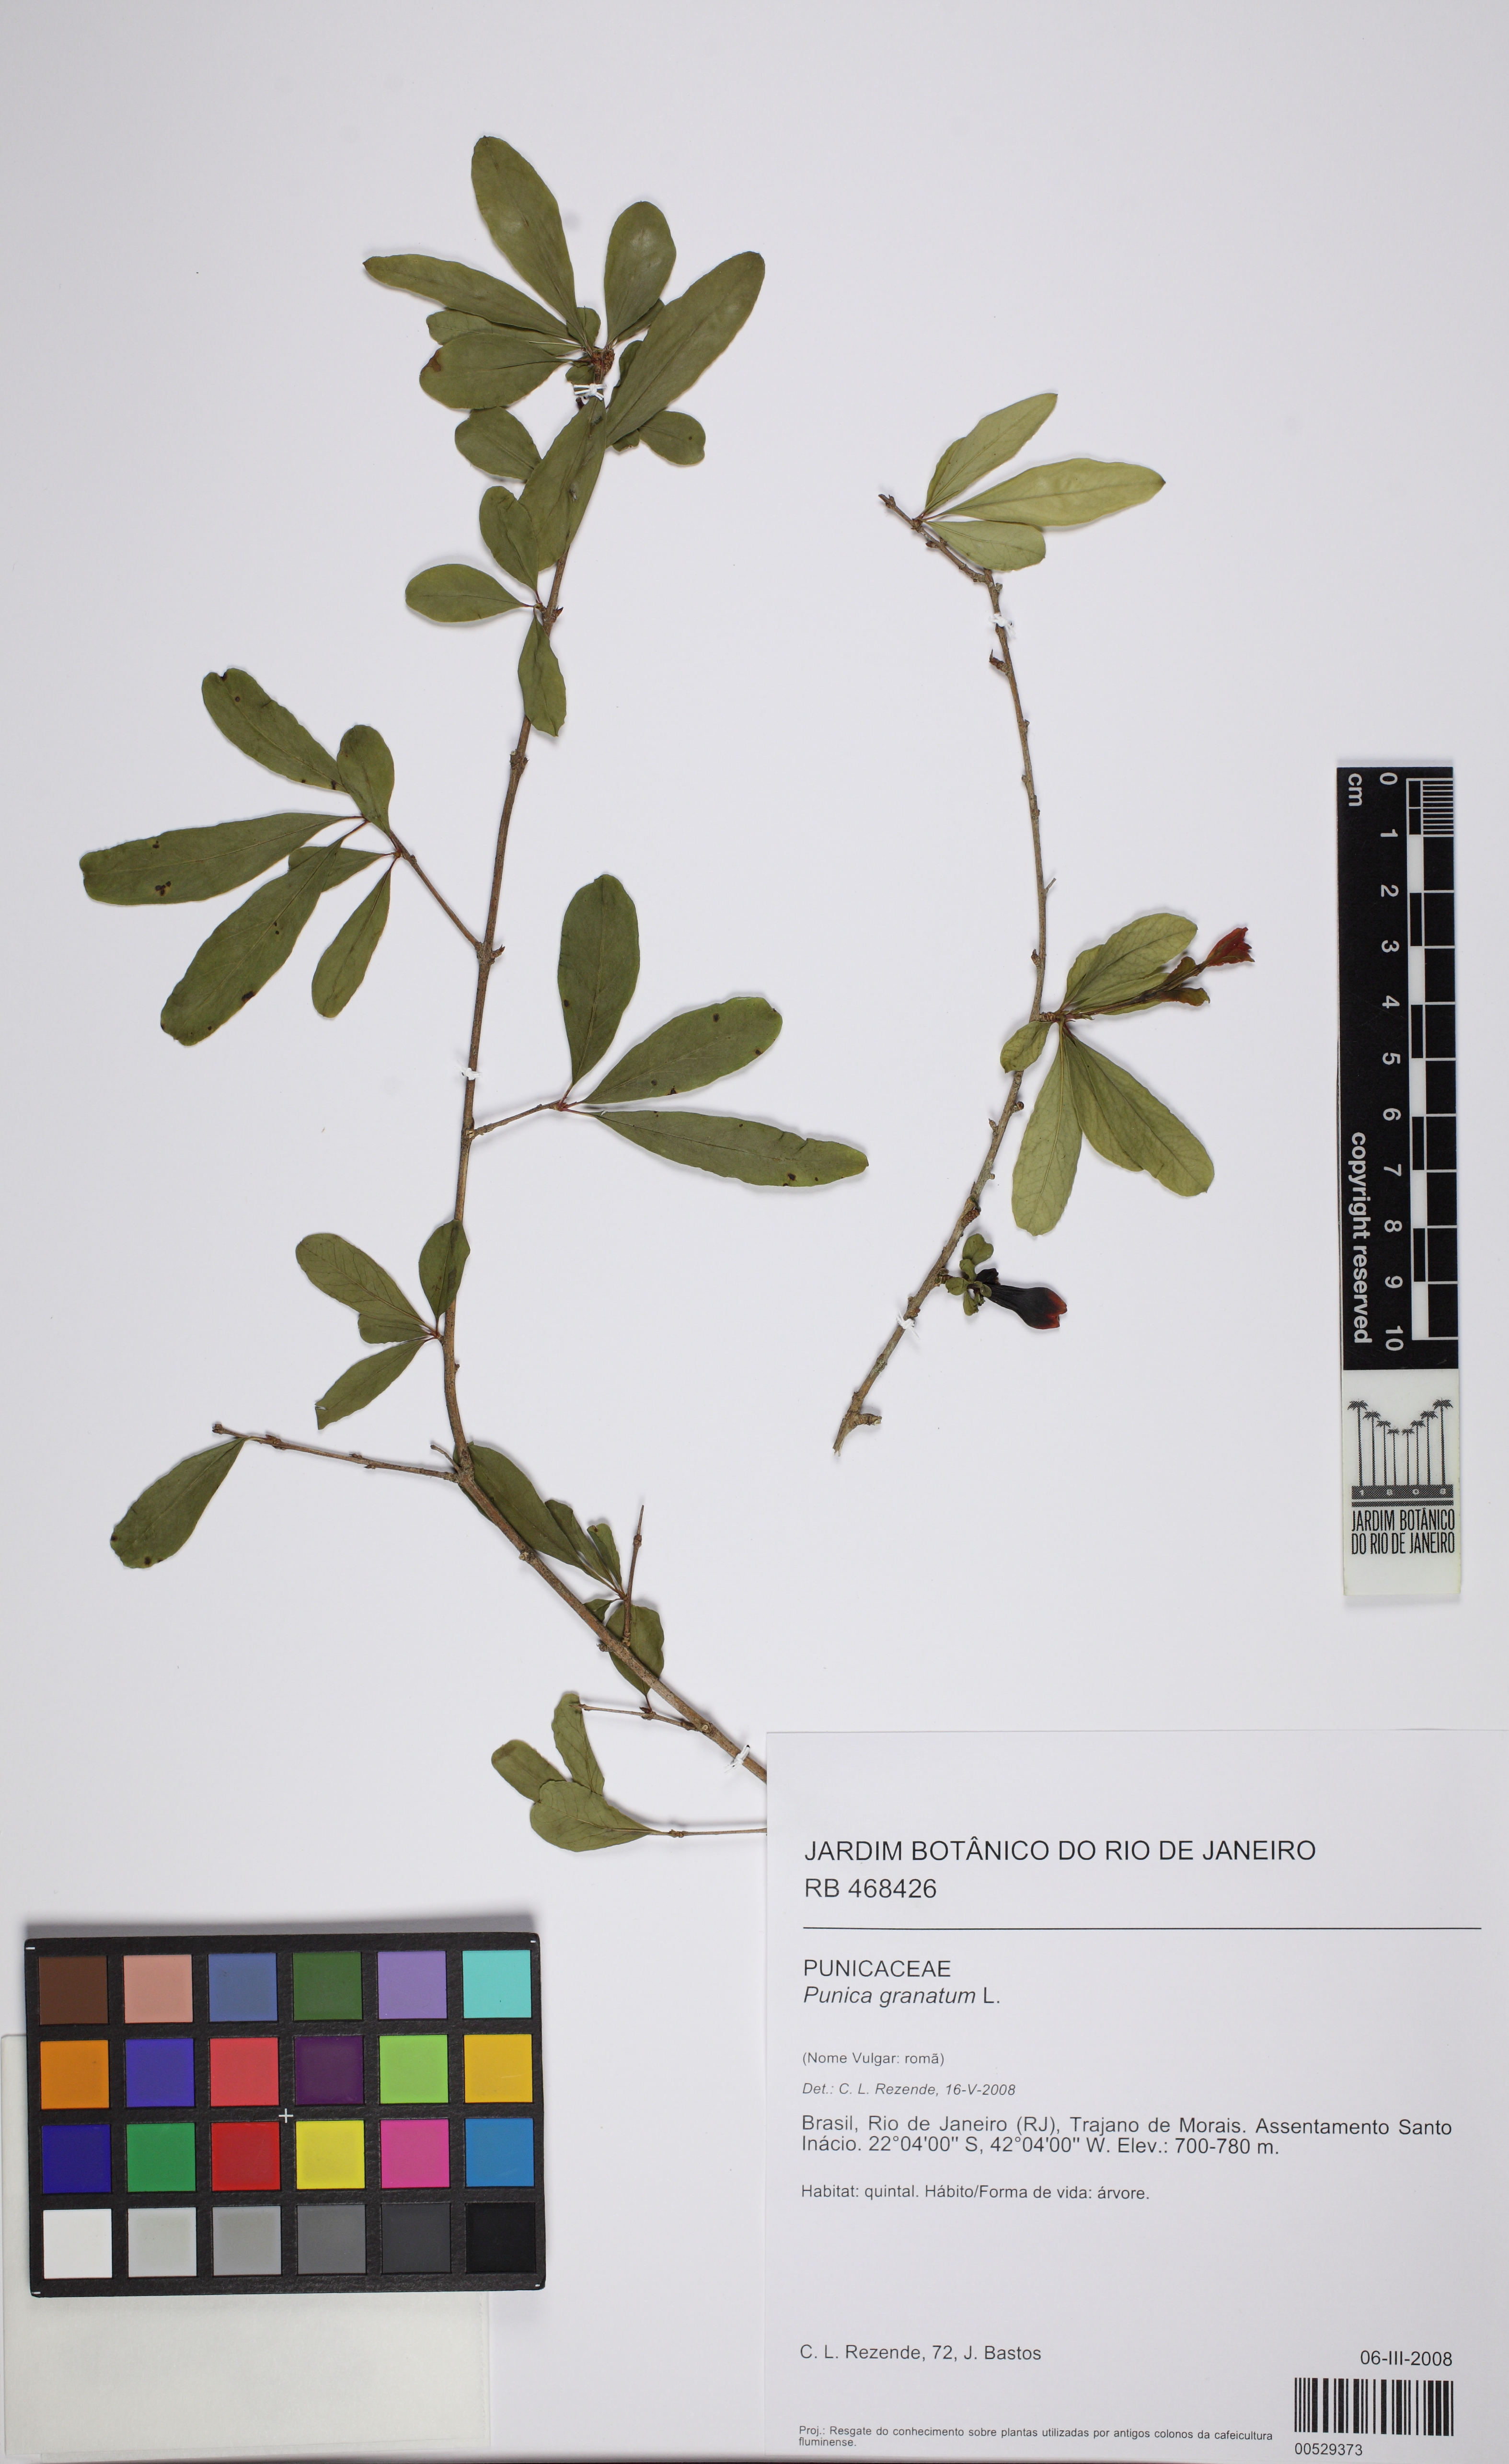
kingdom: Plantae
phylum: Tracheophyta
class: Magnoliopsida
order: Myrtales
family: Lythraceae
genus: Punica
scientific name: Punica granatum
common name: Pomegranate
